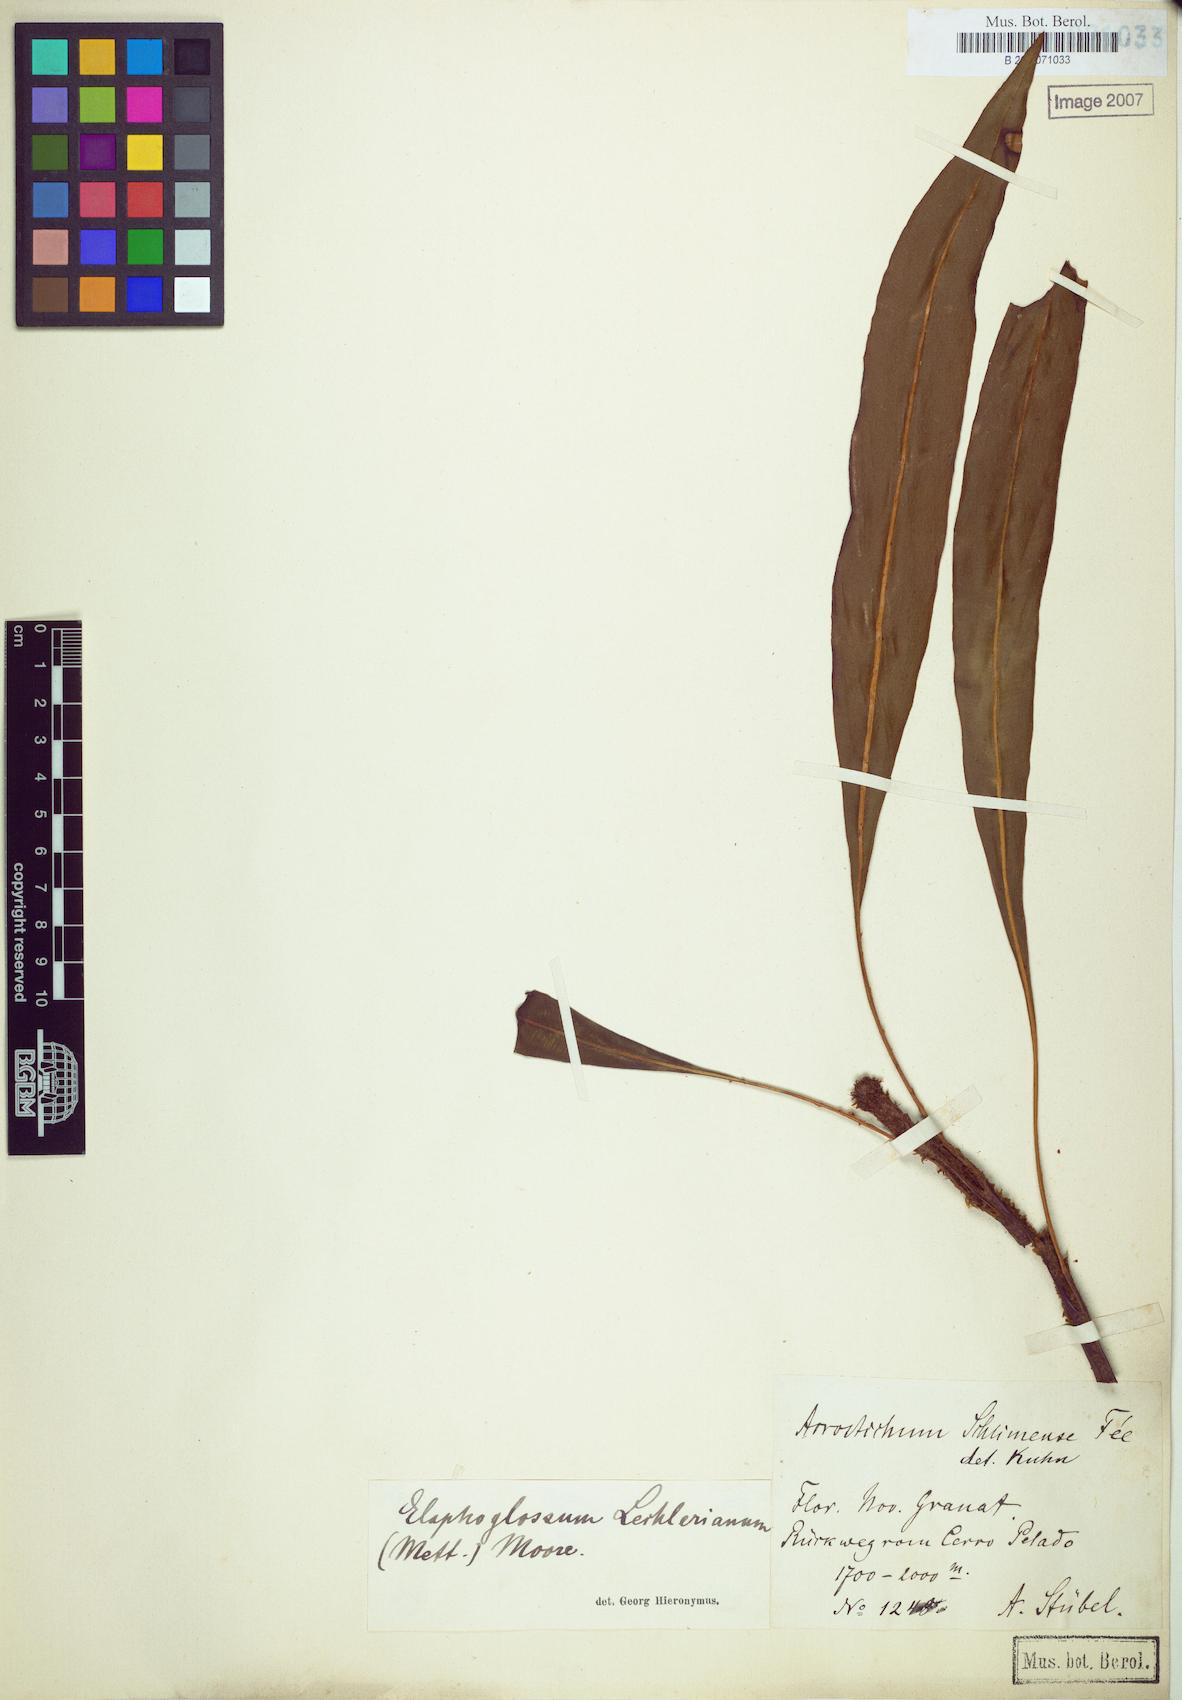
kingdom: Plantae
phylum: Tracheophyta
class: Polypodiopsida
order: Polypodiales
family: Dryopteridaceae
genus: Elaphoglossum
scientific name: Elaphoglossum lechlerianum
